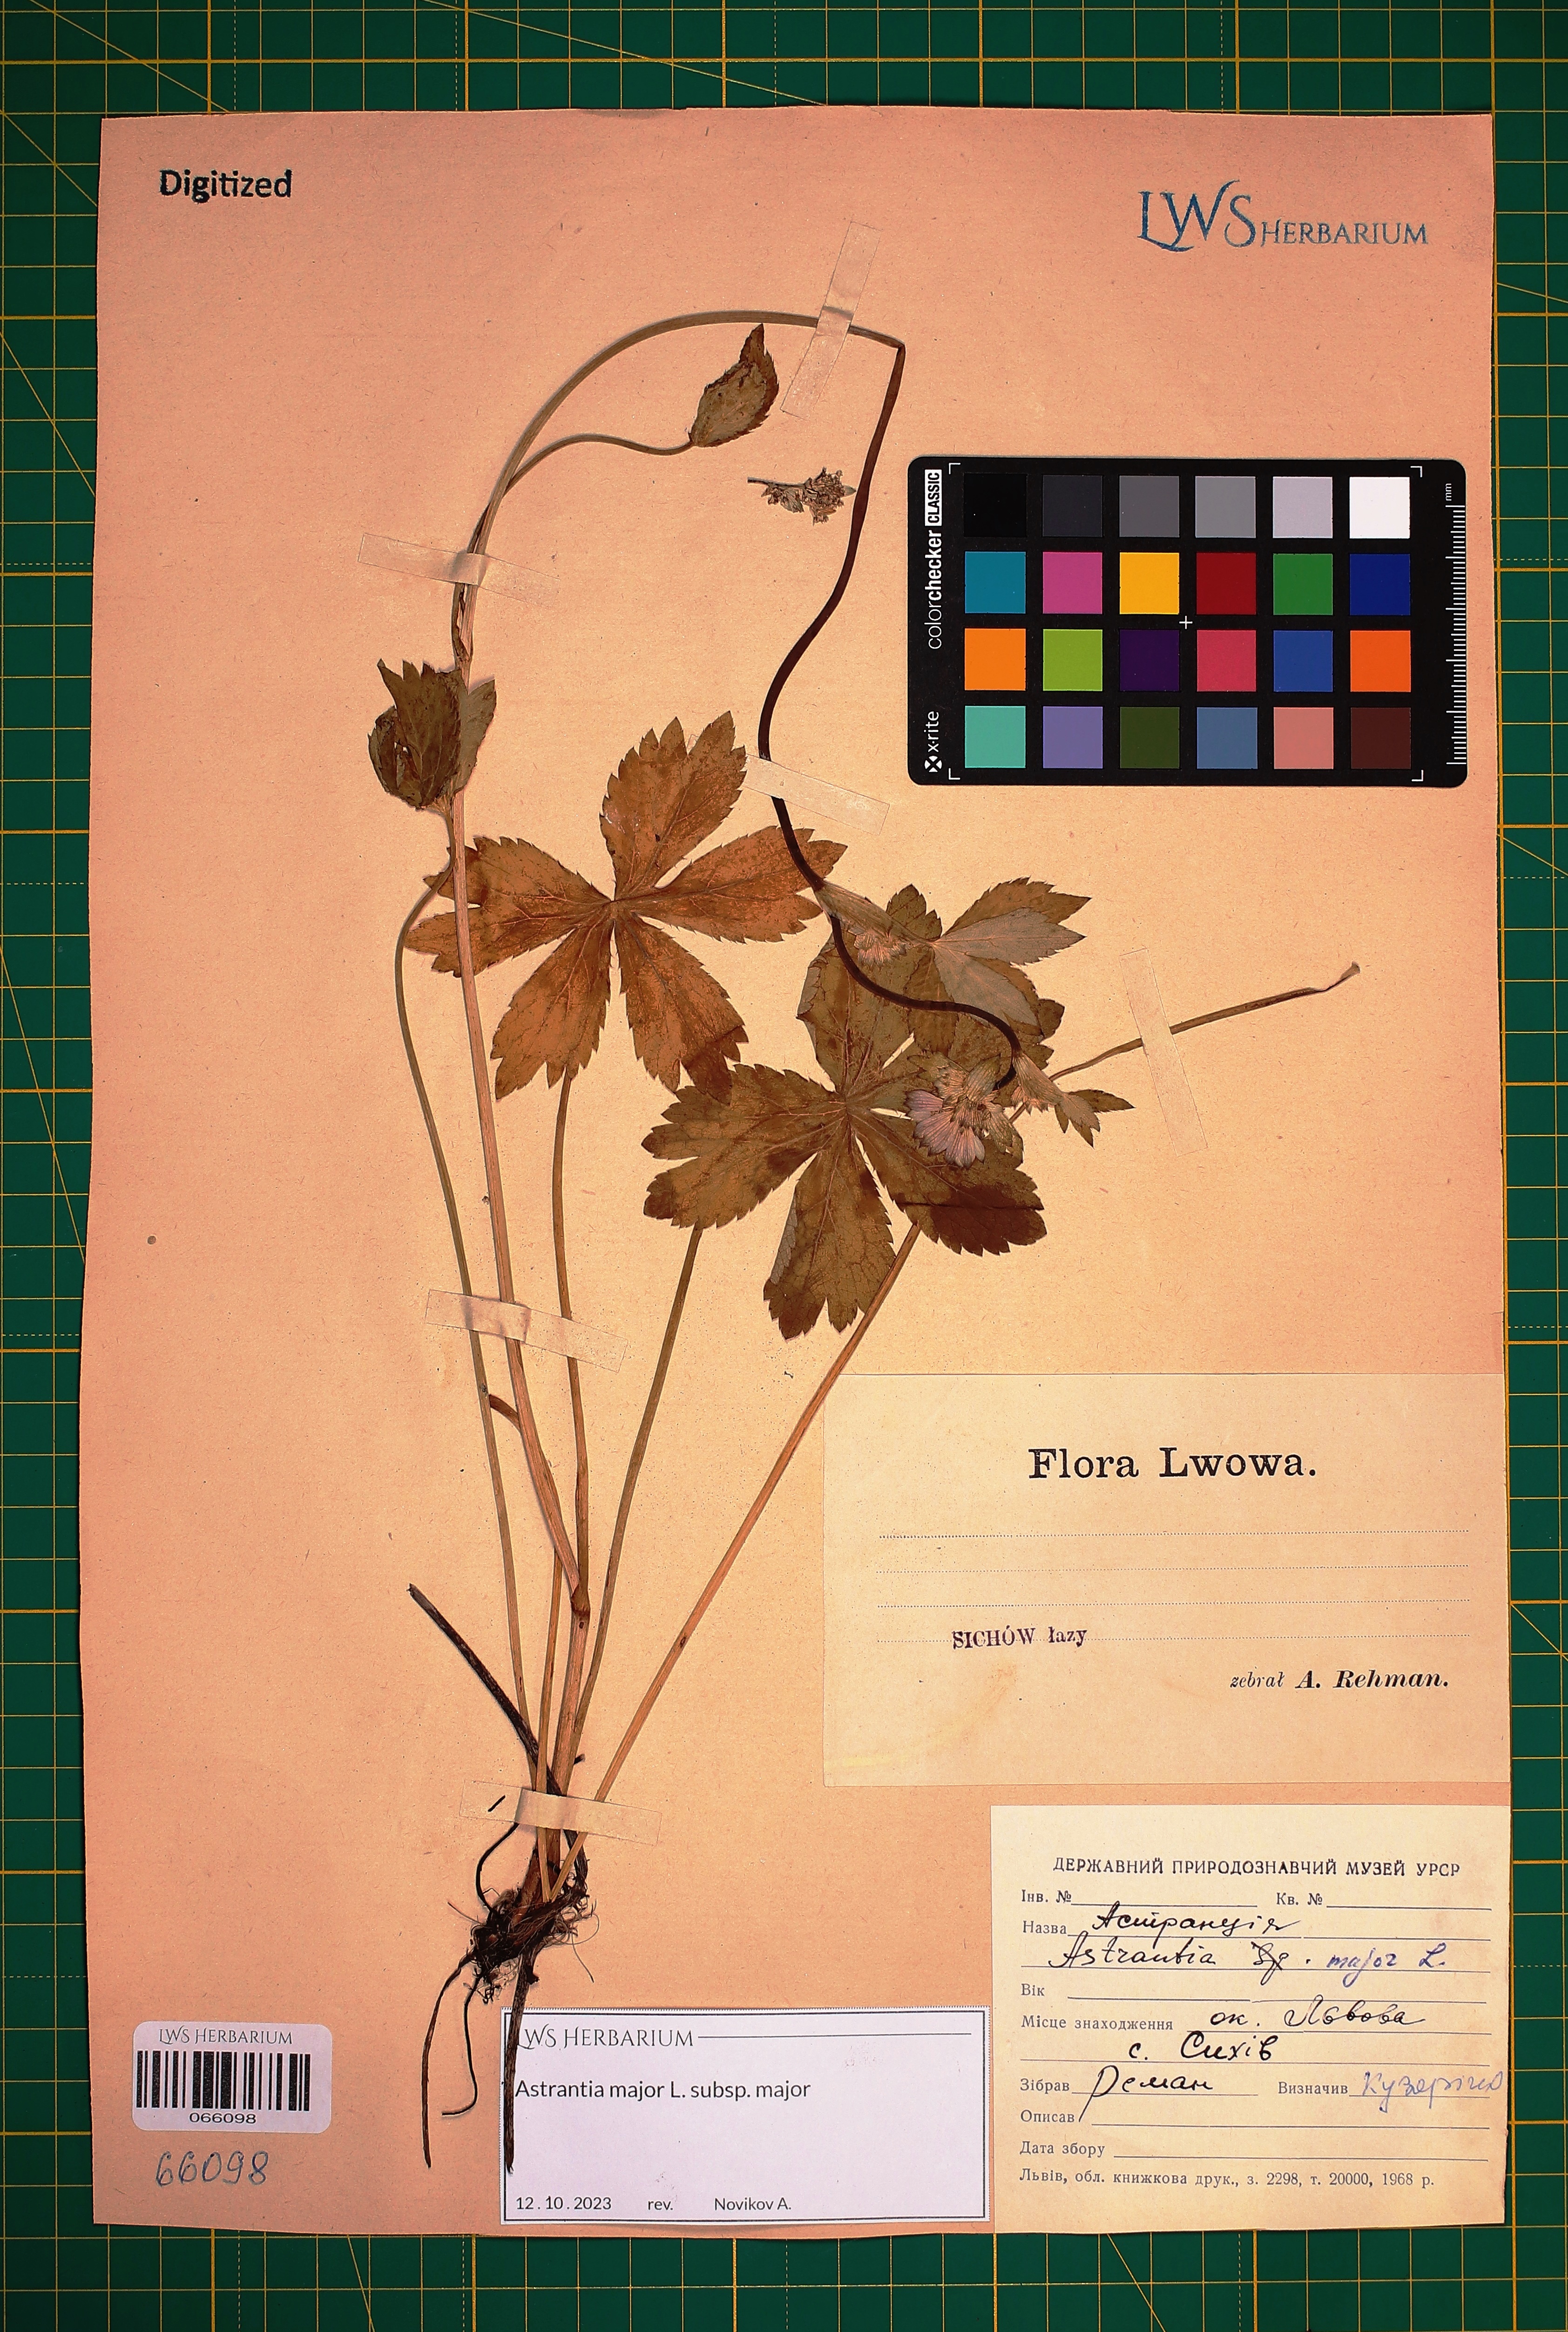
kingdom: Plantae
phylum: Tracheophyta
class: Magnoliopsida
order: Apiales
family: Apiaceae
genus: Astrantia
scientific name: Astrantia major
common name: Greater masterwort
